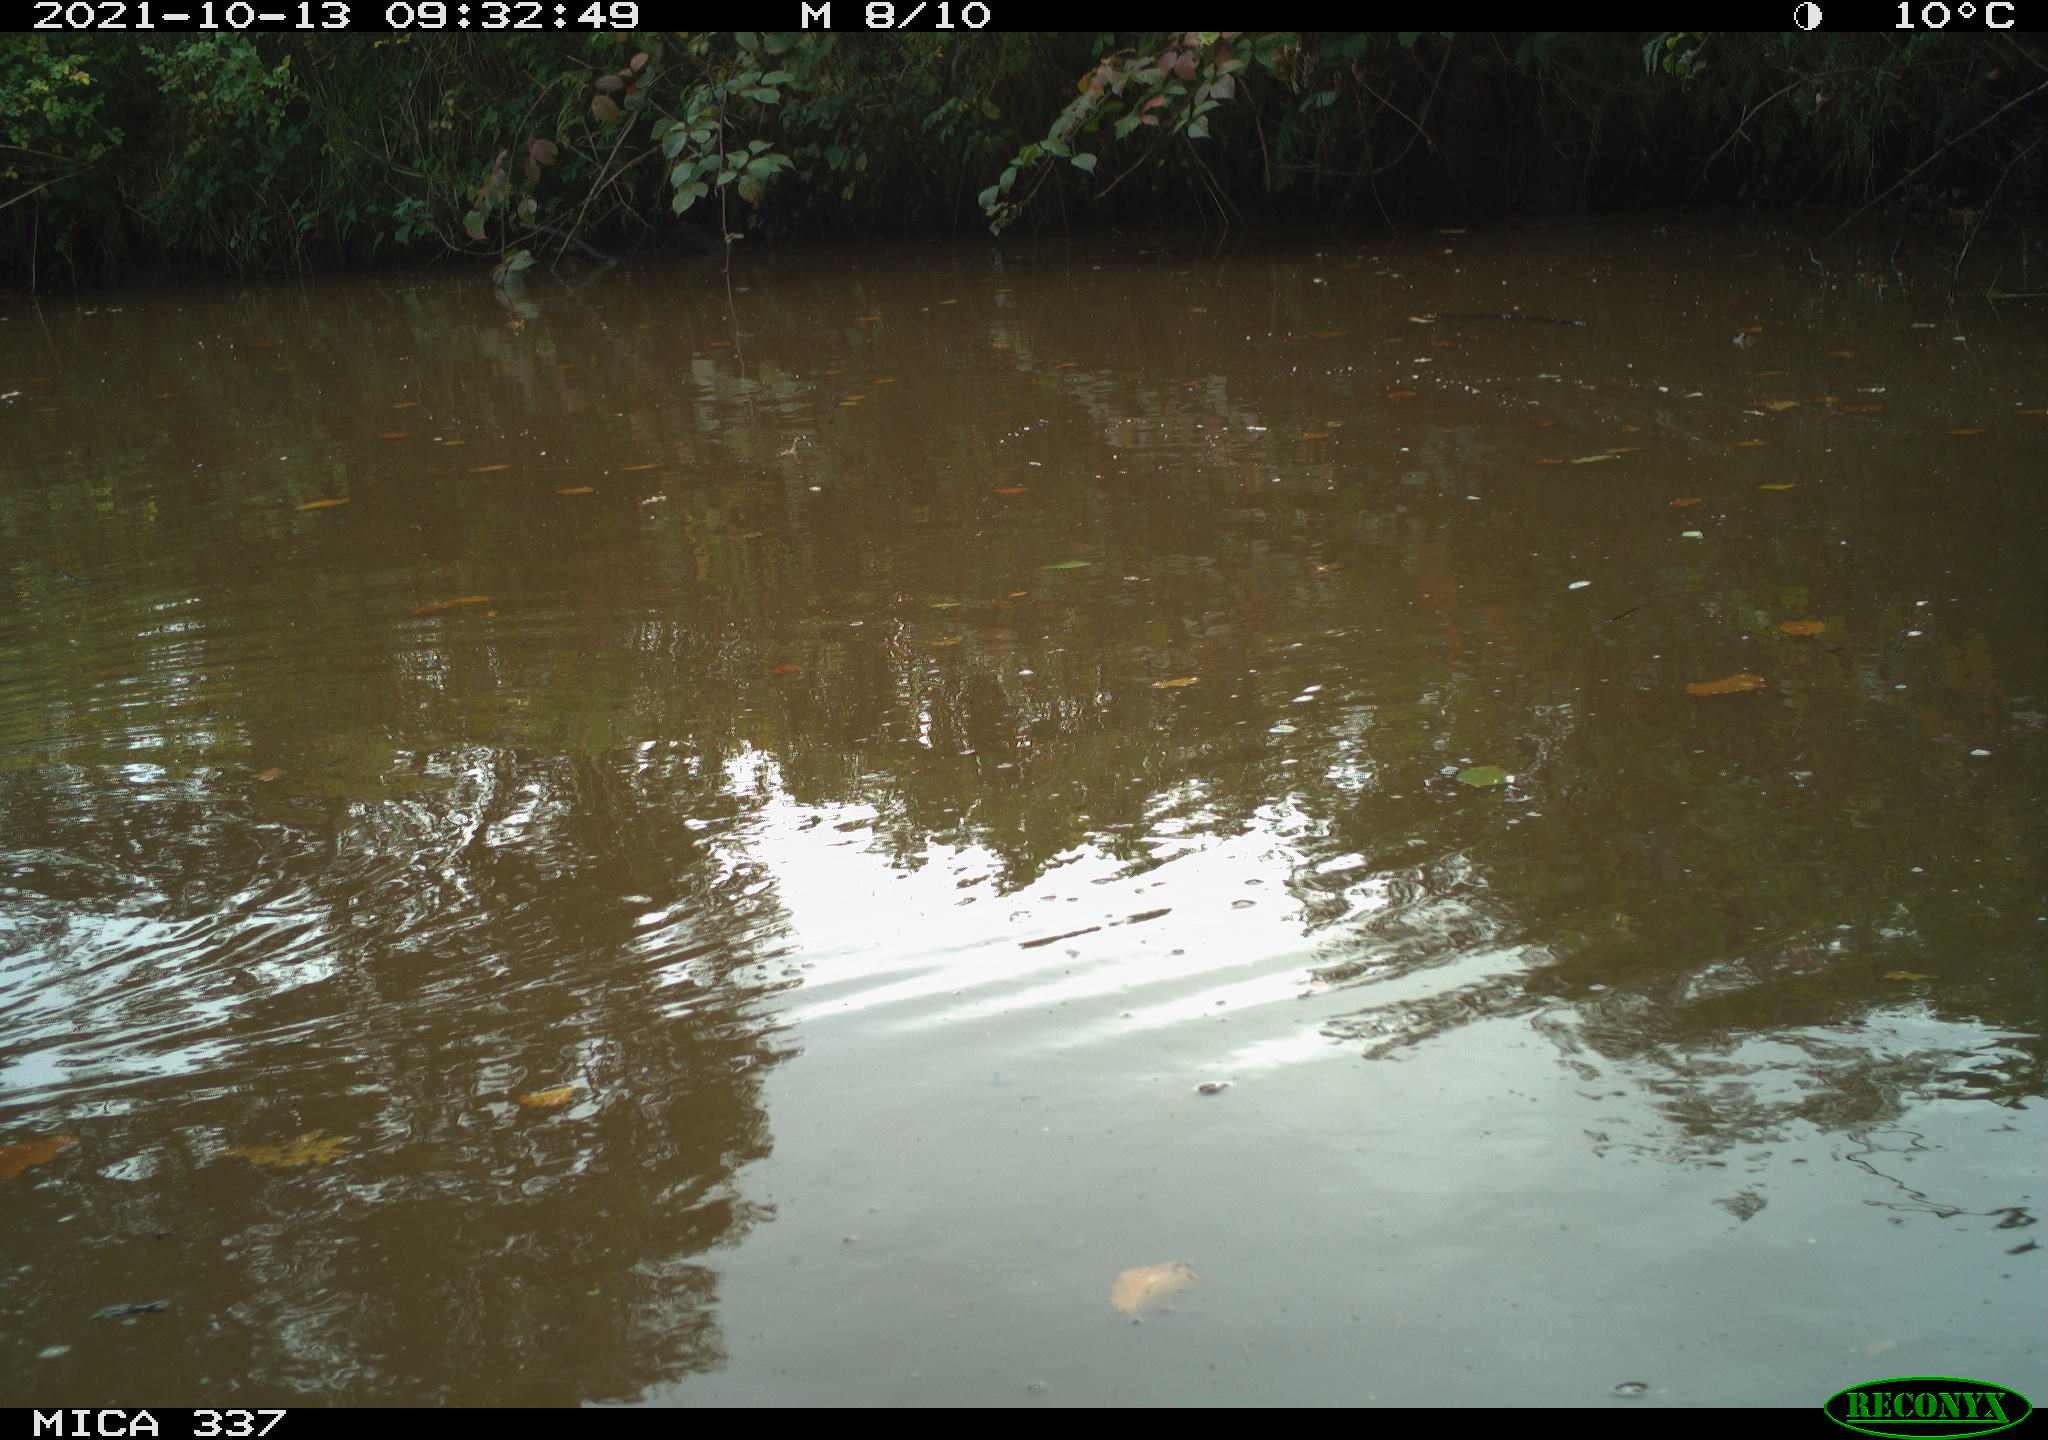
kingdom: Animalia
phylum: Chordata
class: Aves
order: Gruiformes
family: Rallidae
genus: Gallinula
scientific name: Gallinula chloropus
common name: Common moorhen
